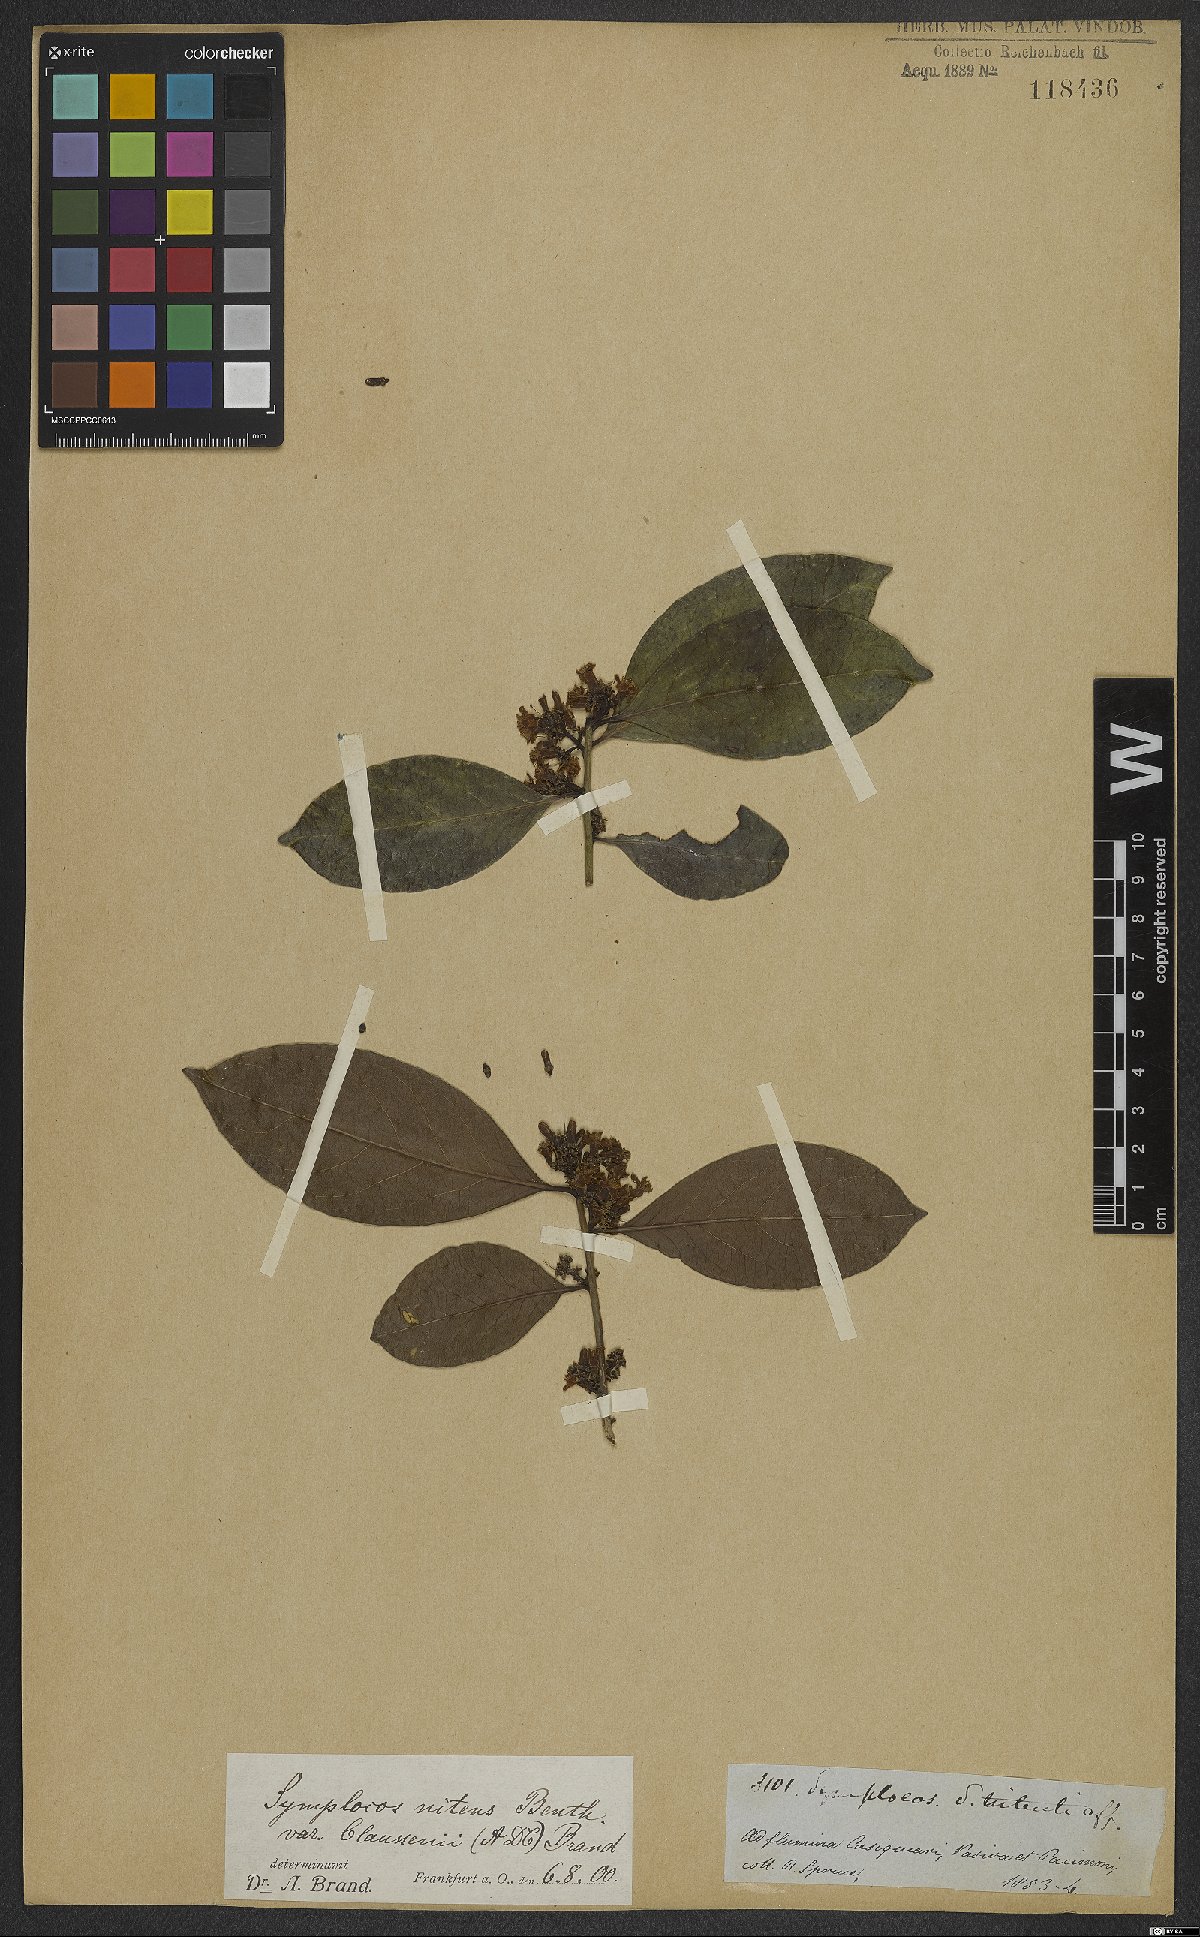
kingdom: Plantae
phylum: Tracheophyta
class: Magnoliopsida
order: Ericales
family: Symplocaceae
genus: Symplocos
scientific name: Symplocos nitens
